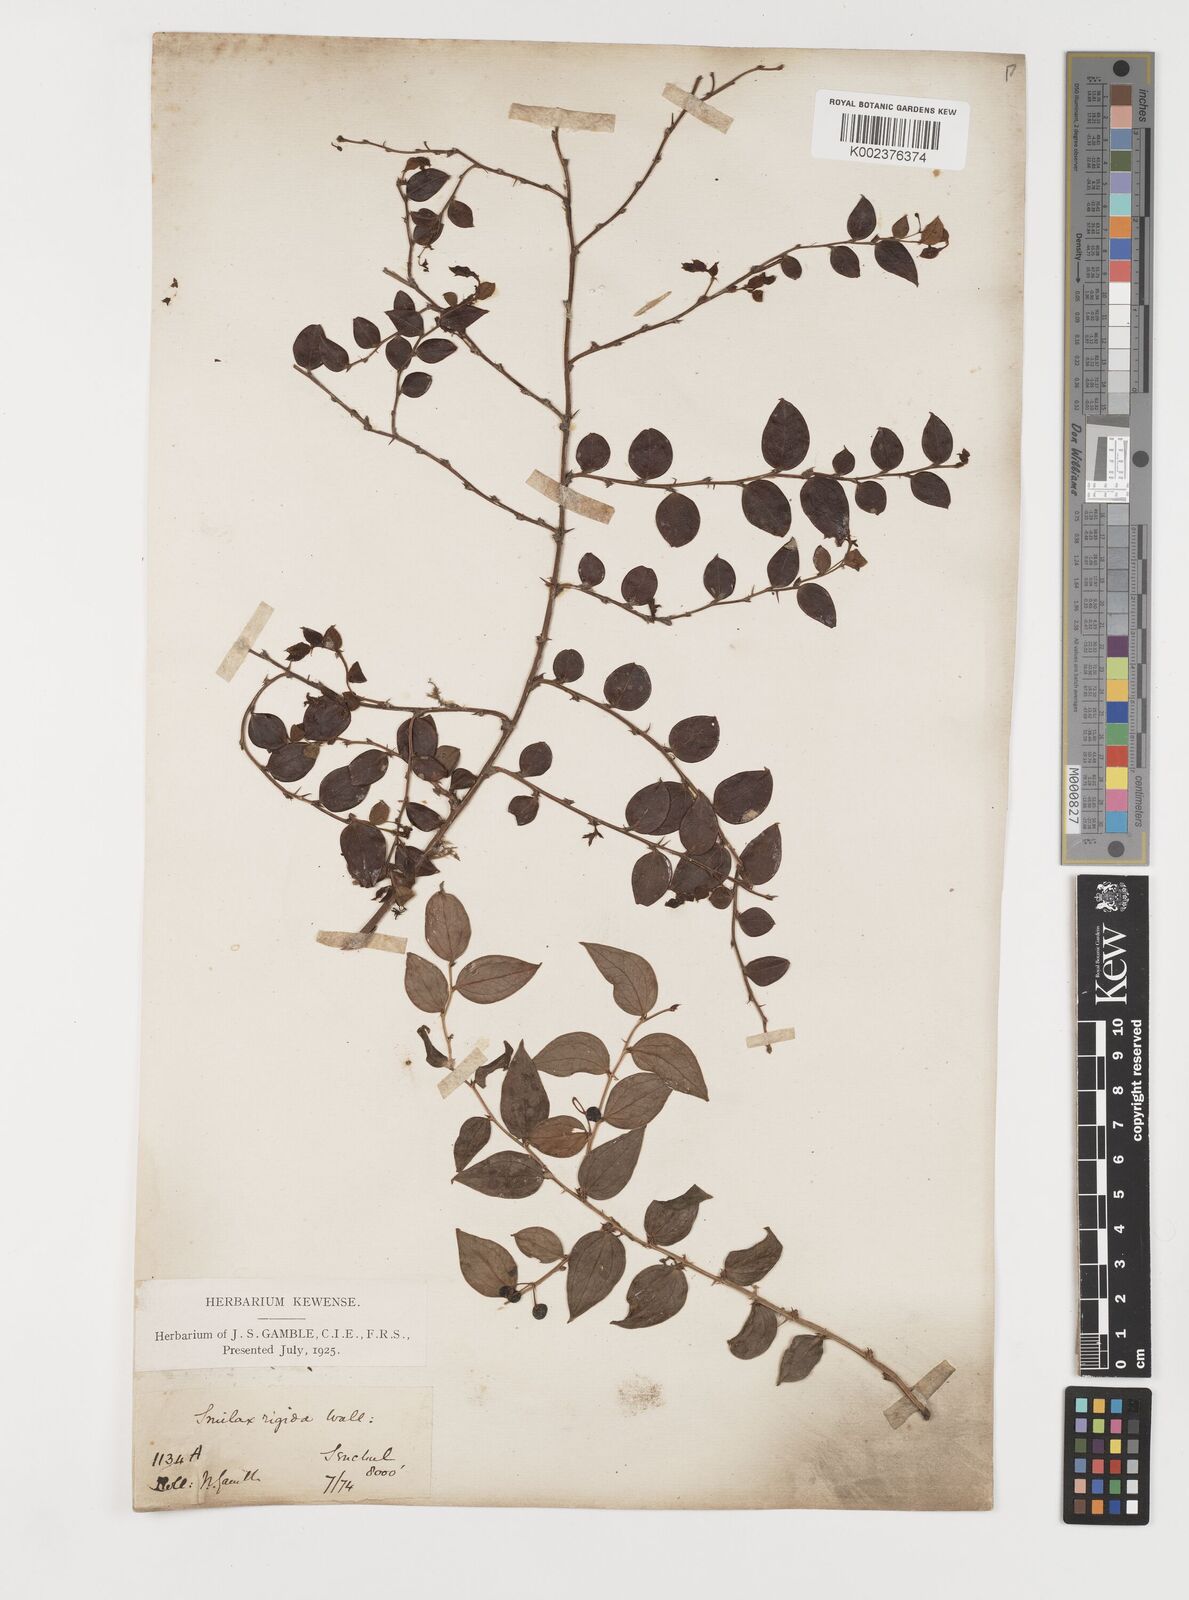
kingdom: Plantae
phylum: Tracheophyta
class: Liliopsida
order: Liliales
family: Smilacaceae
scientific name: Smilacaceae
